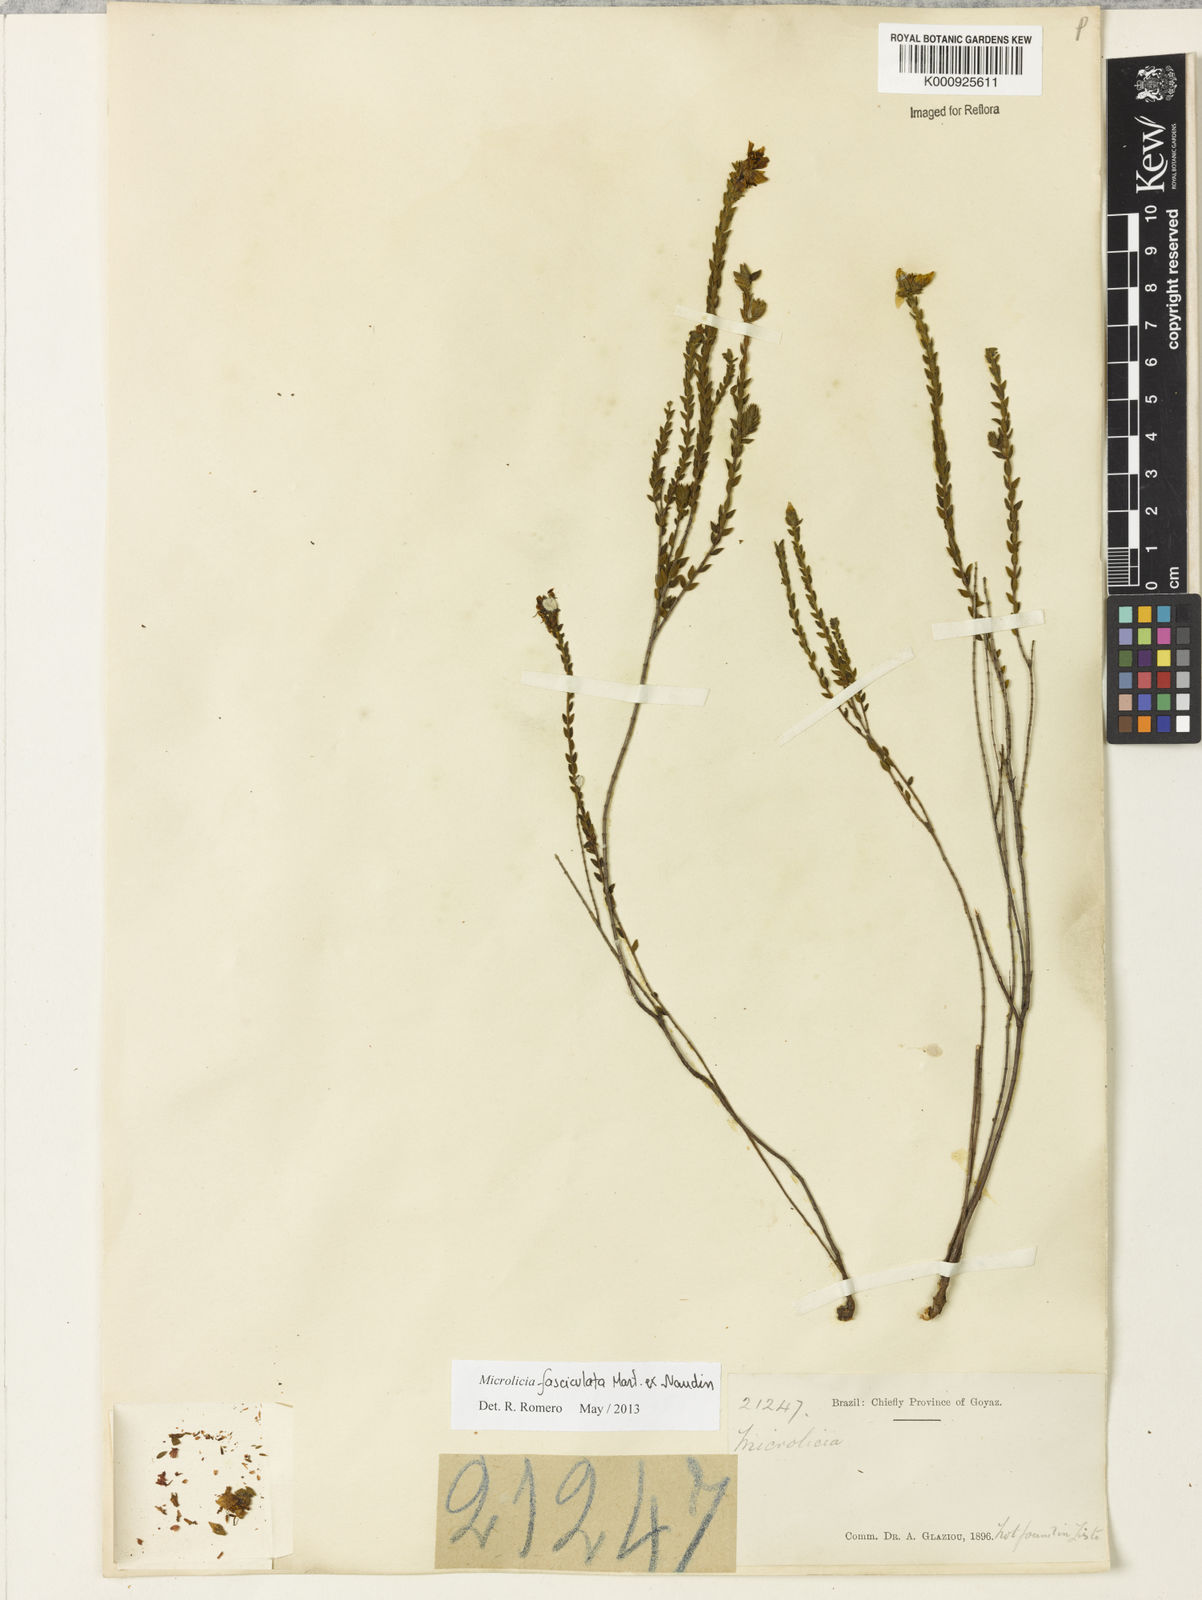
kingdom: Plantae
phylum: Tracheophyta
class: Magnoliopsida
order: Myrtales
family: Melastomataceae
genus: Microlicia
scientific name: Microlicia fasciculata
